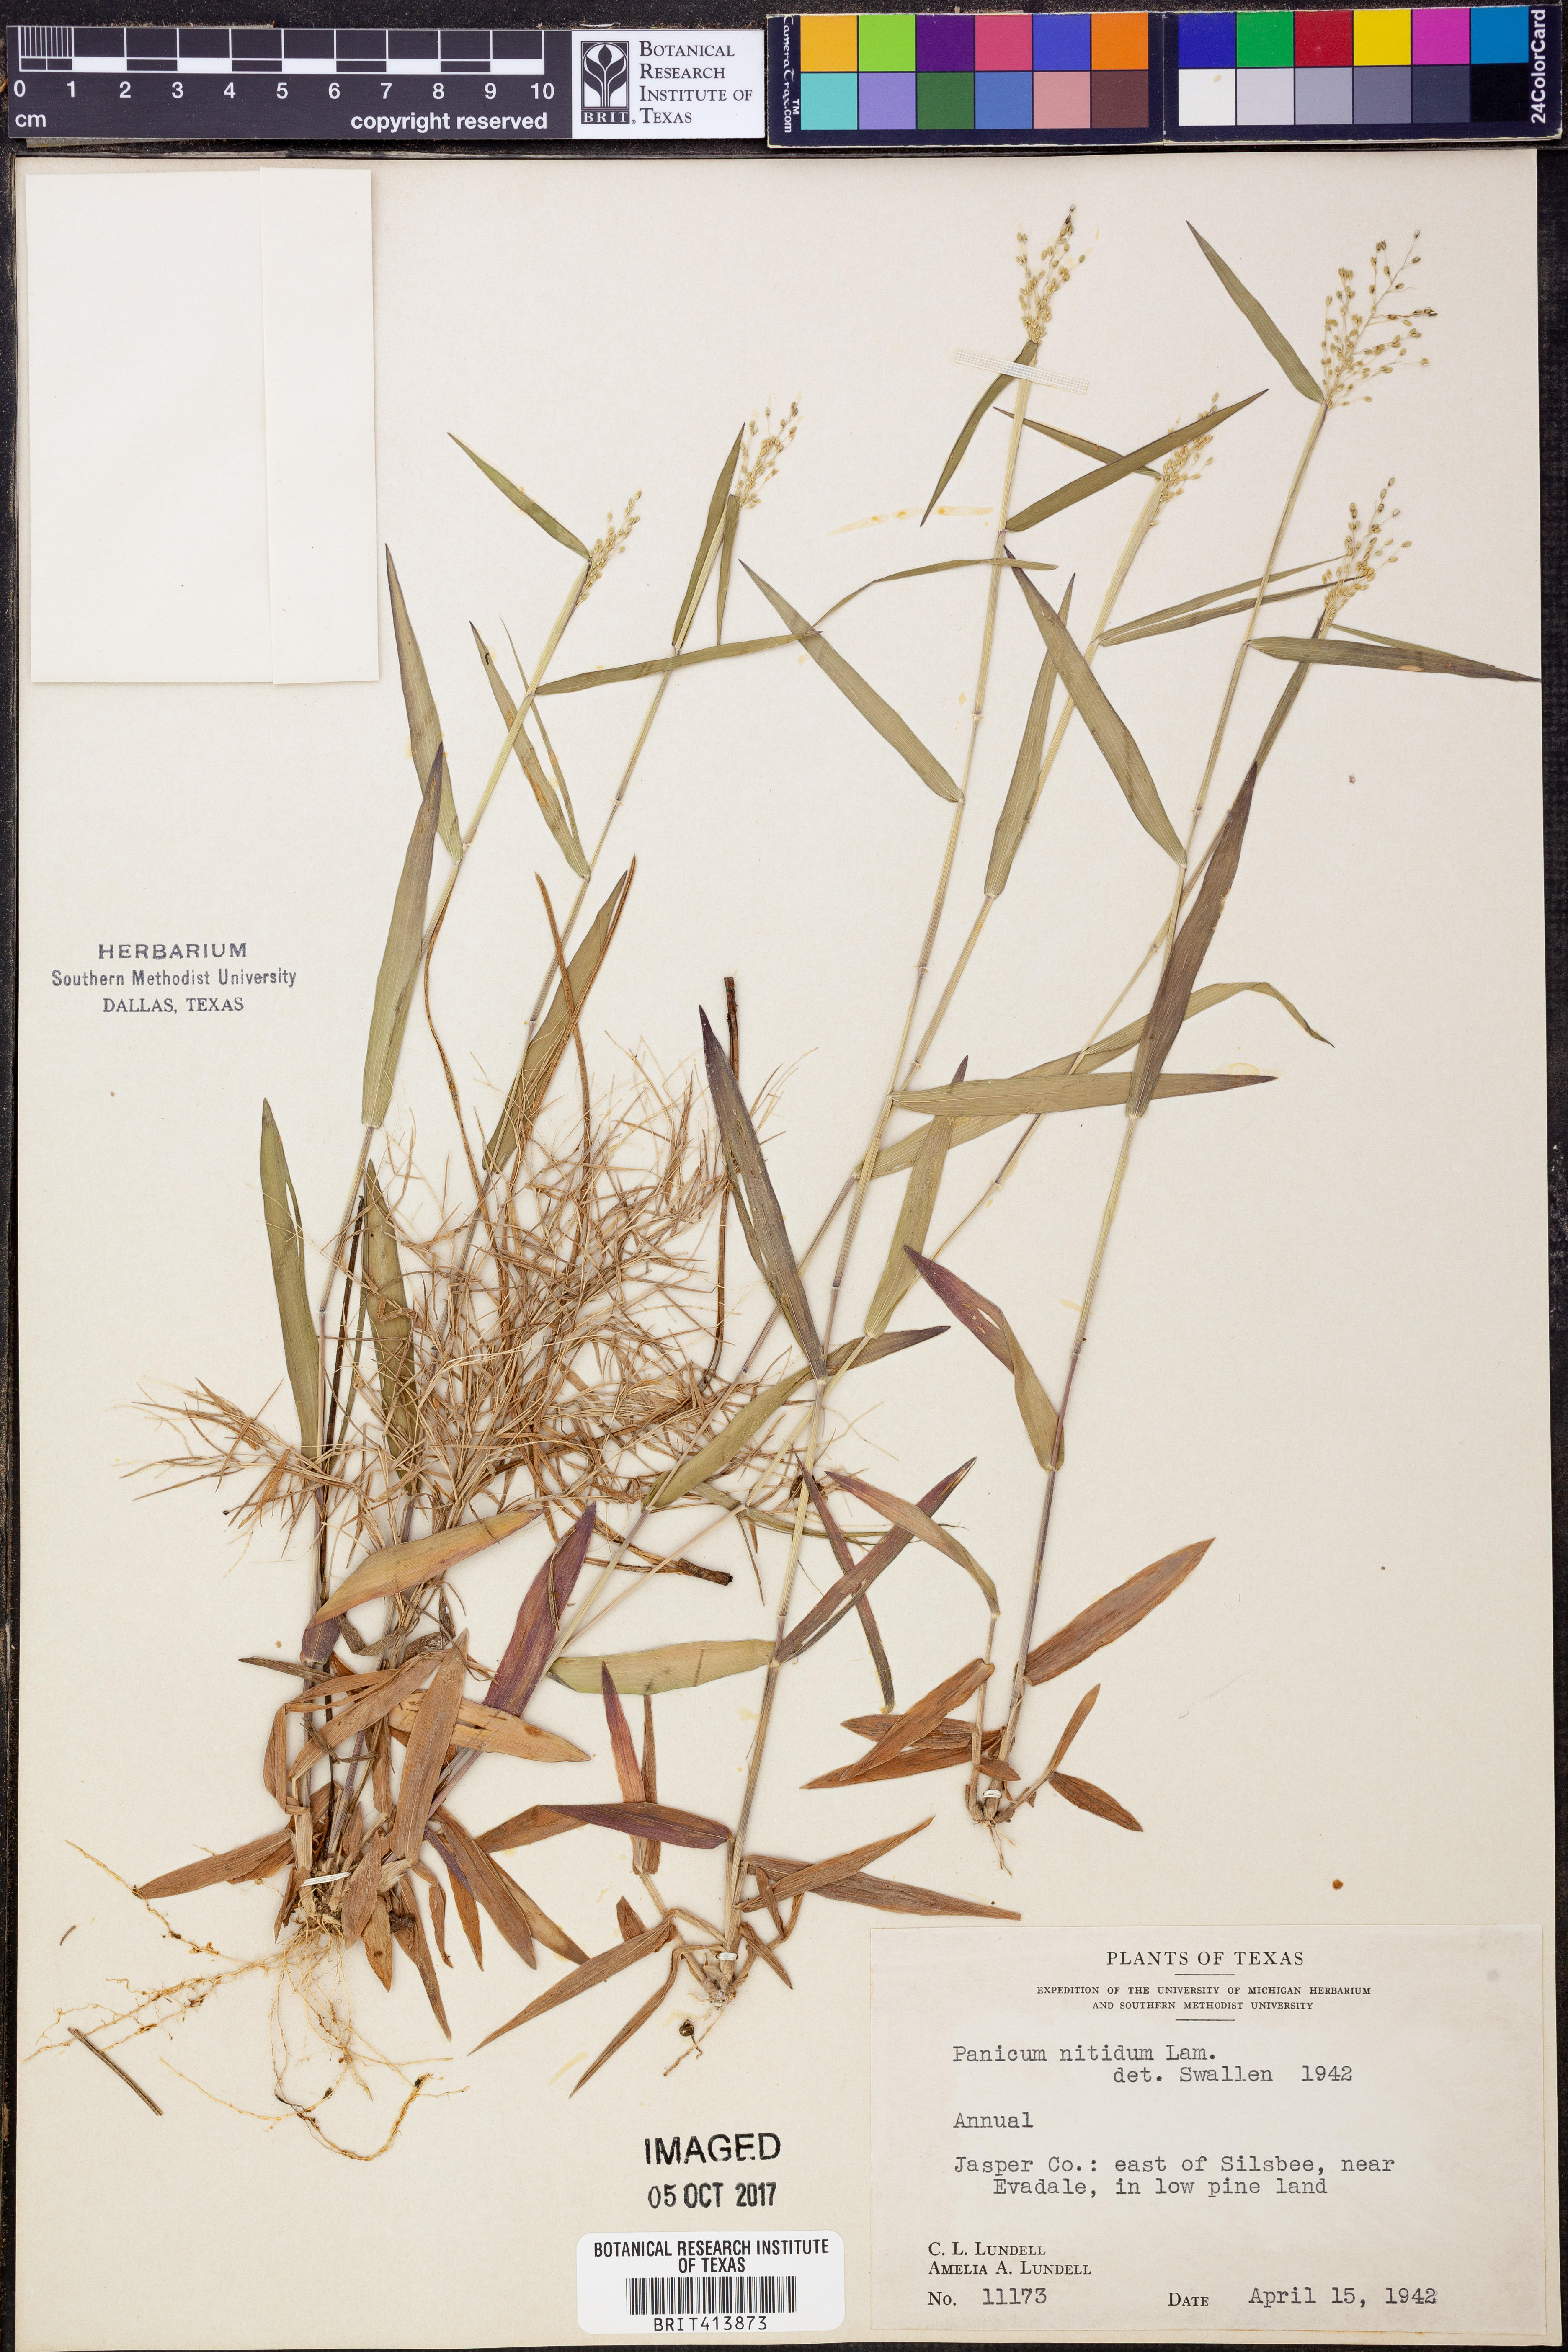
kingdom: Plantae
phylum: Tracheophyta
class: Liliopsida
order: Poales
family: Poaceae
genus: Dichanthelium
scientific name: Dichanthelium dichotomum
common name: Cypress panicgrass
